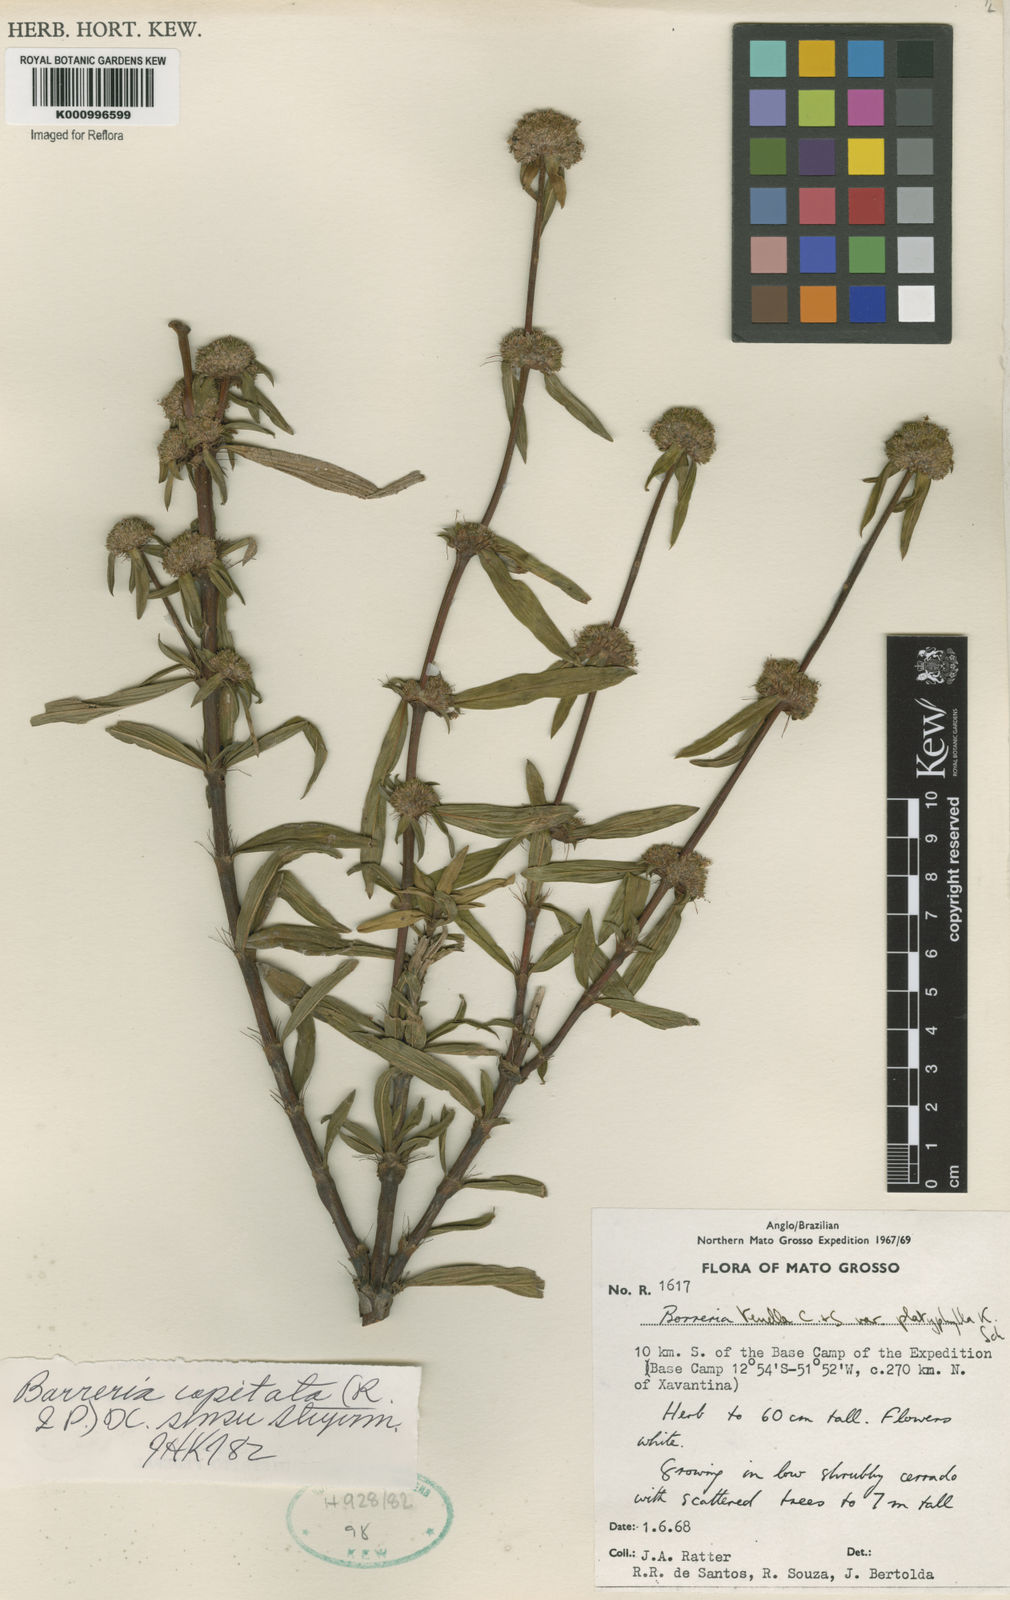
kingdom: Plantae
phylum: Tracheophyta
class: Magnoliopsida
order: Gentianales
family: Rubiaceae
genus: Spermacoce
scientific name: Spermacoce capitata
